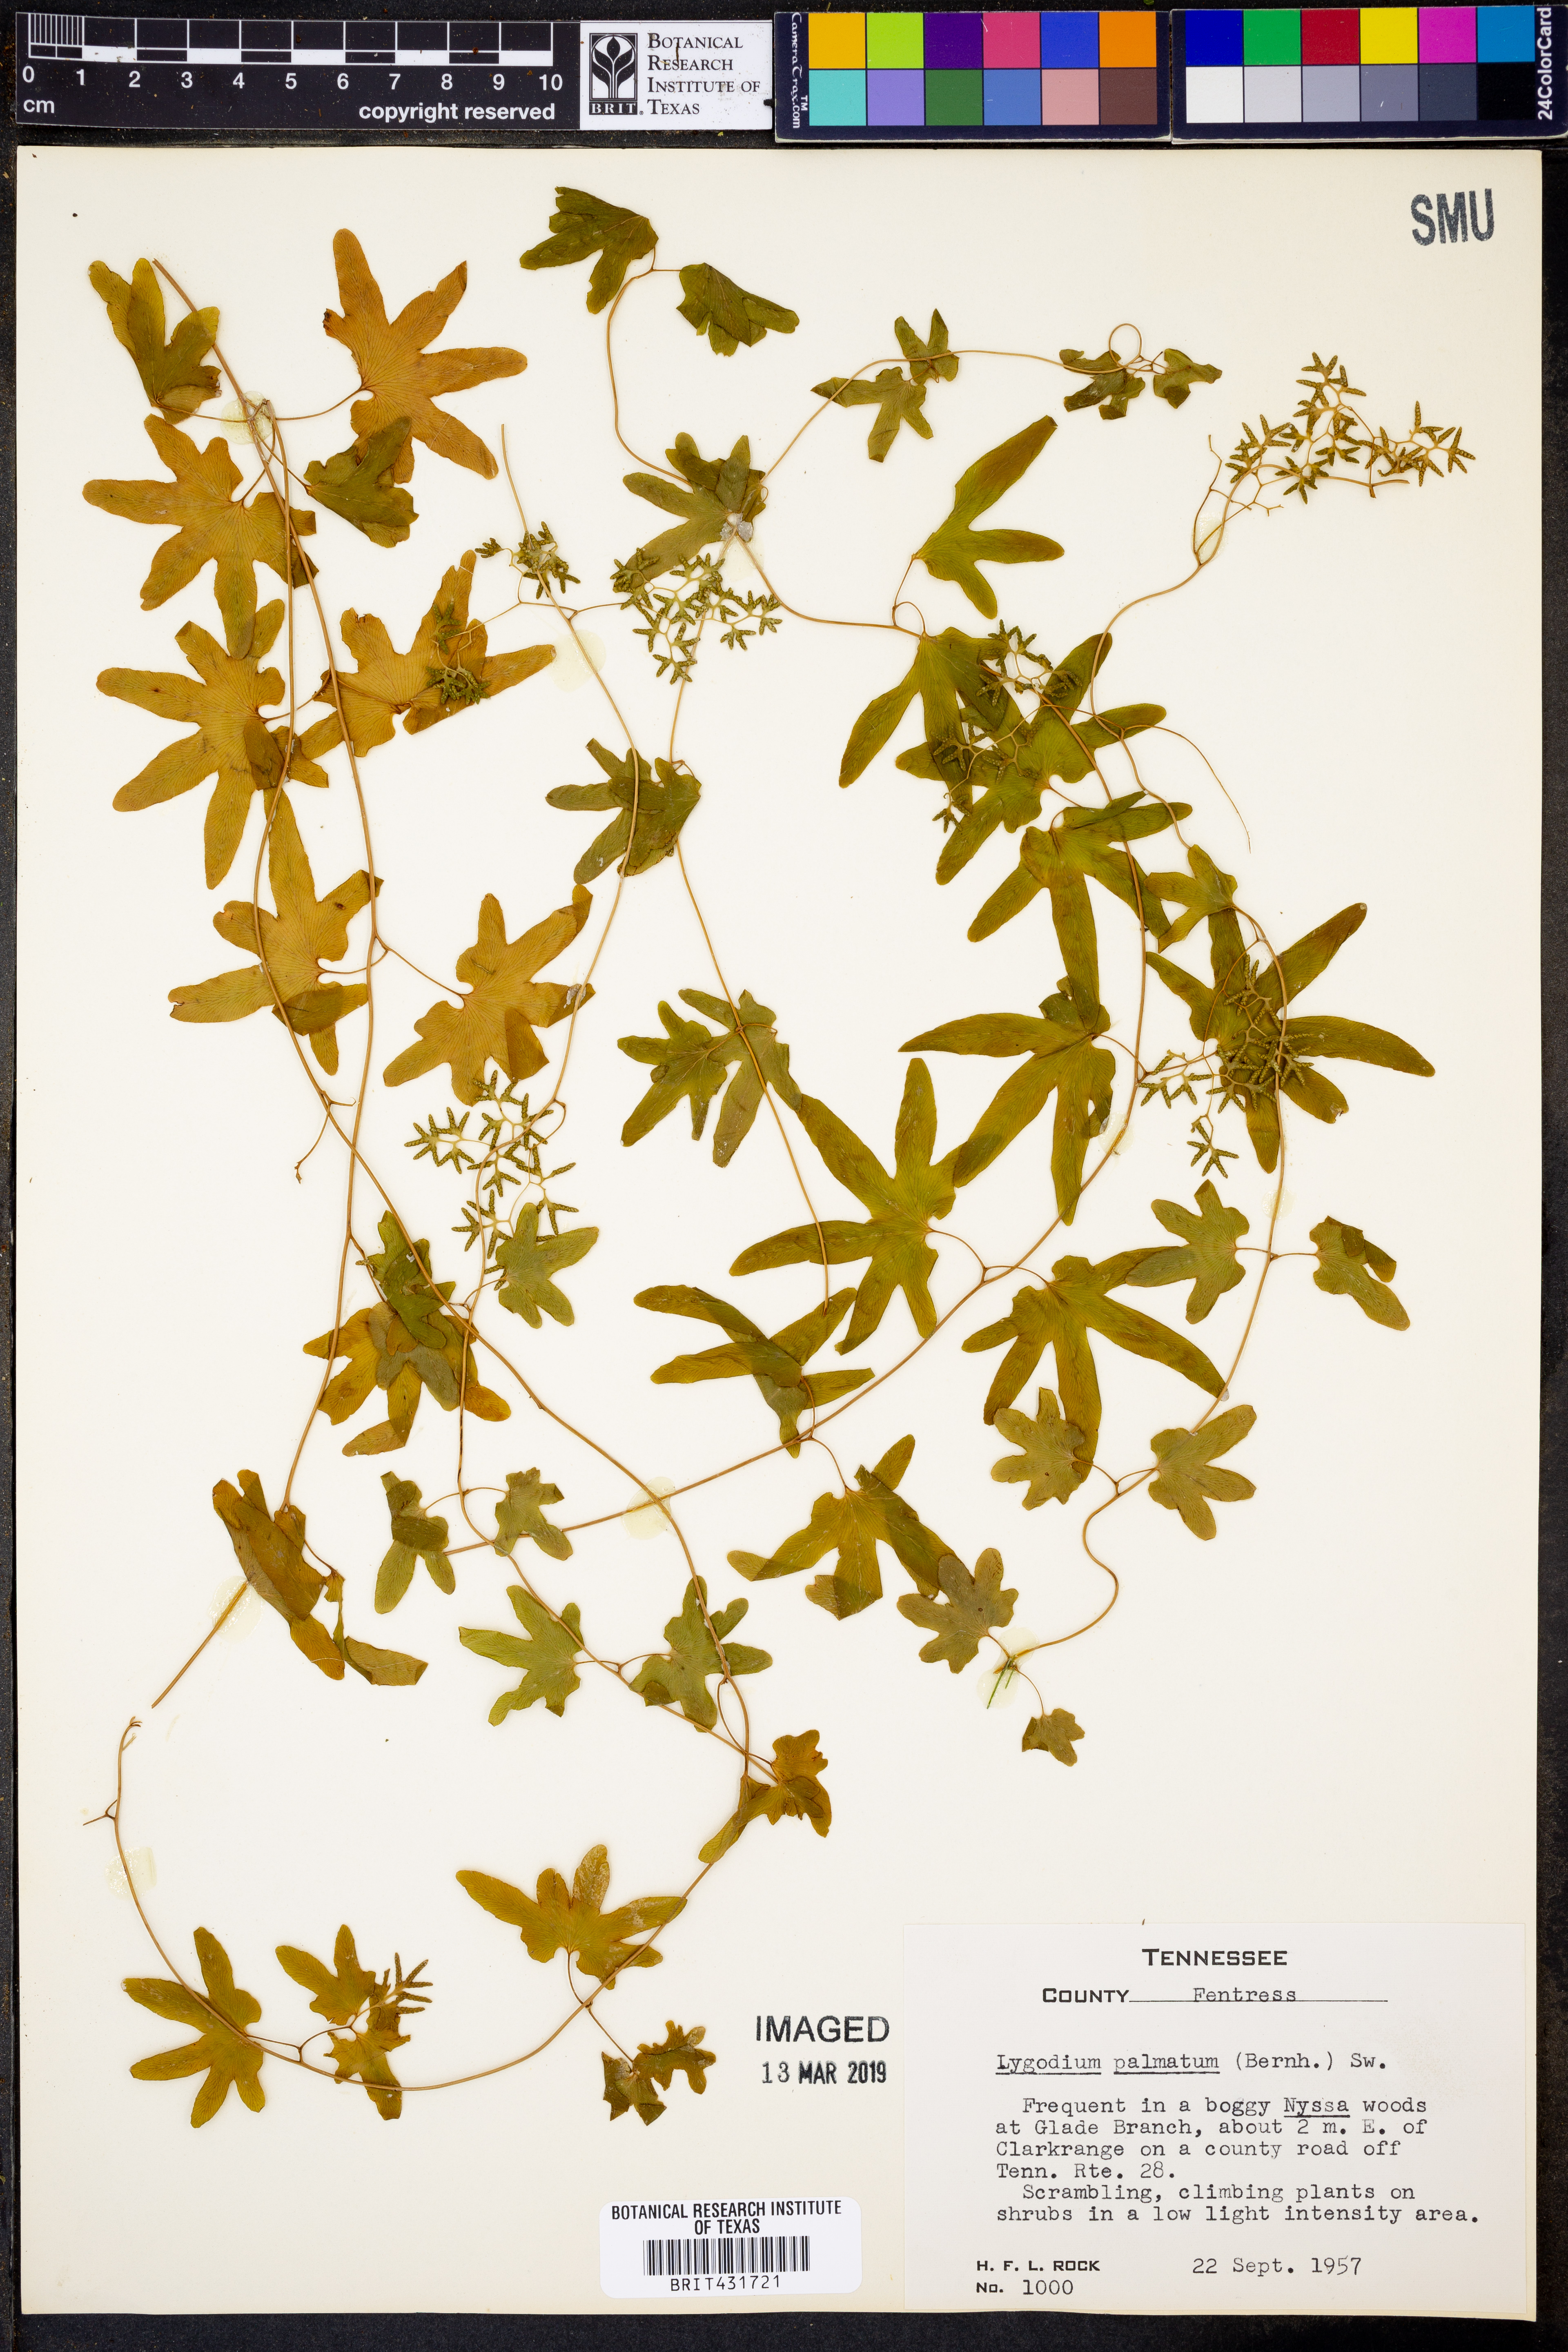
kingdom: Plantae
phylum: Tracheophyta
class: Polypodiopsida
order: Schizaeales
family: Lygodiaceae
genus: Lygodium
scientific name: Lygodium palmatum
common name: American climbing fern
